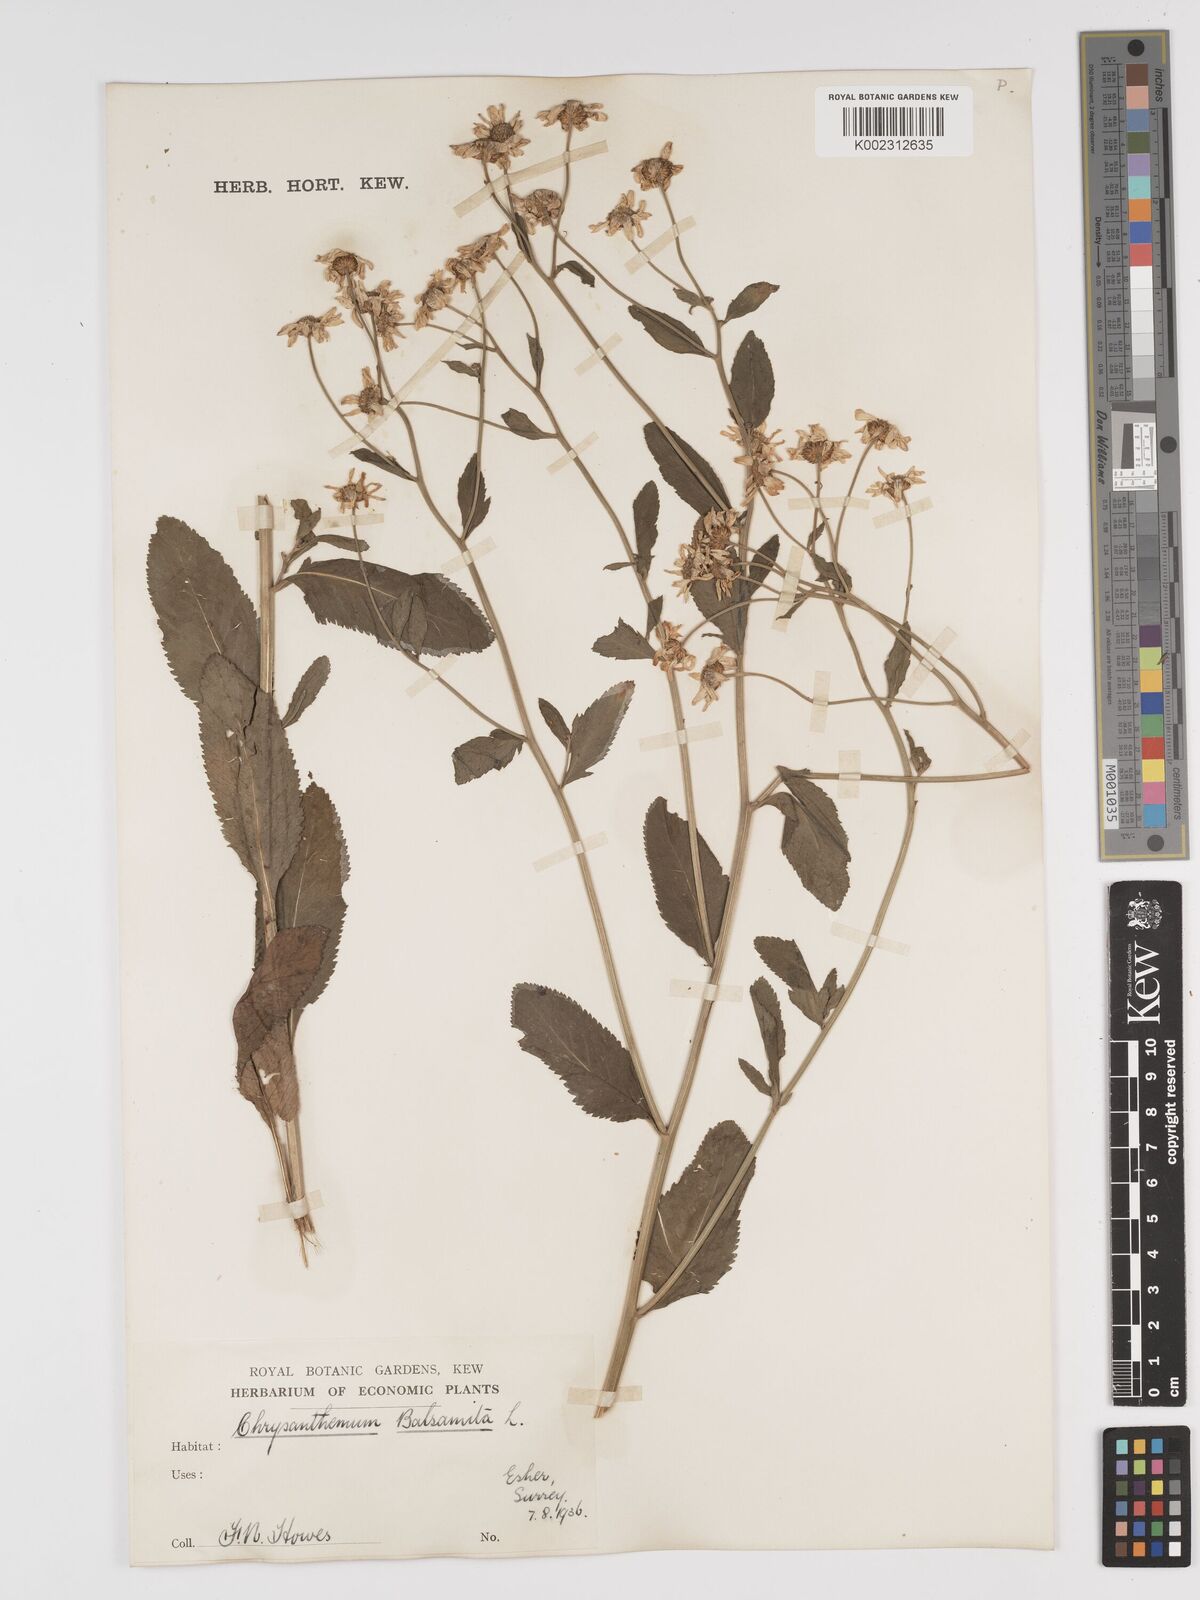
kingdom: Plantae
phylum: Tracheophyta
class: Magnoliopsida
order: Asterales
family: Asteraceae
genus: Tanacetum
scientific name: Tanacetum balsamita
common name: Costmary
